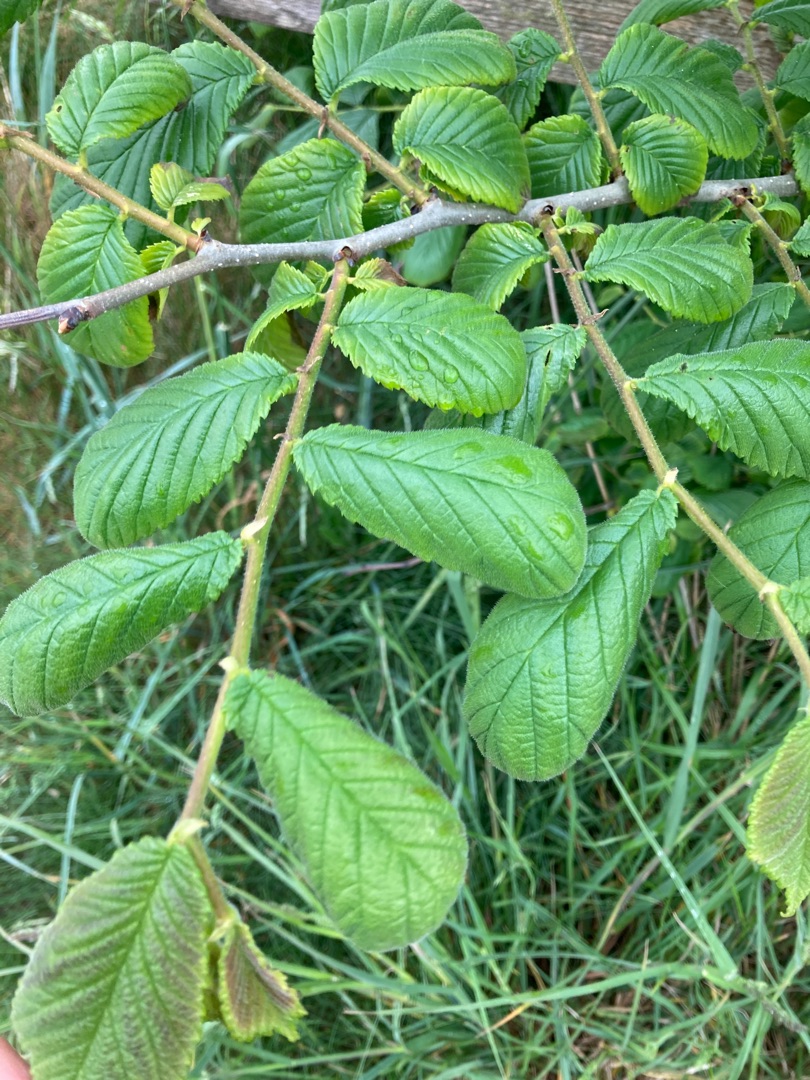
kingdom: Plantae
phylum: Tracheophyta
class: Magnoliopsida
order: Rosales
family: Ulmaceae
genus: Ulmus
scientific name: Ulmus glabra
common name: Skov-elm/storbladet elm
